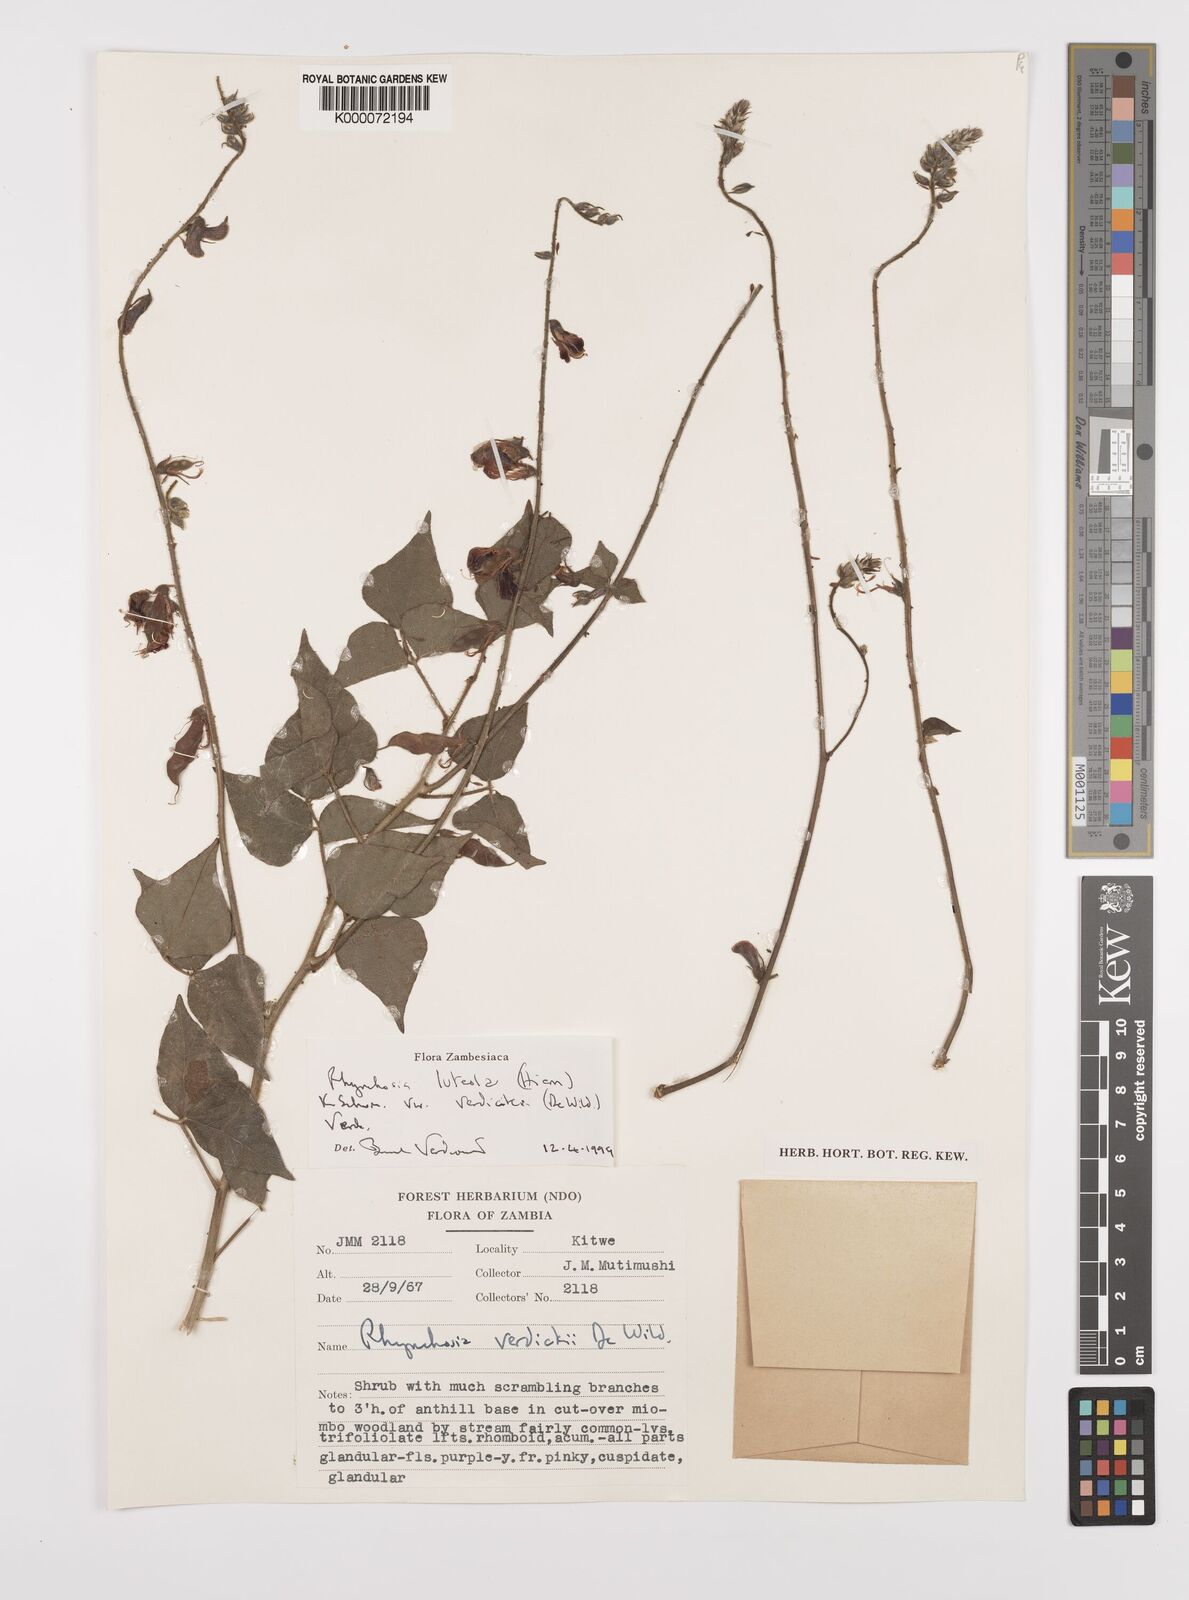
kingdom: Plantae
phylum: Tracheophyta
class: Magnoliopsida
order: Fabales
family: Fabaceae
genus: Rhynchosia
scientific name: Rhynchosia luteola
